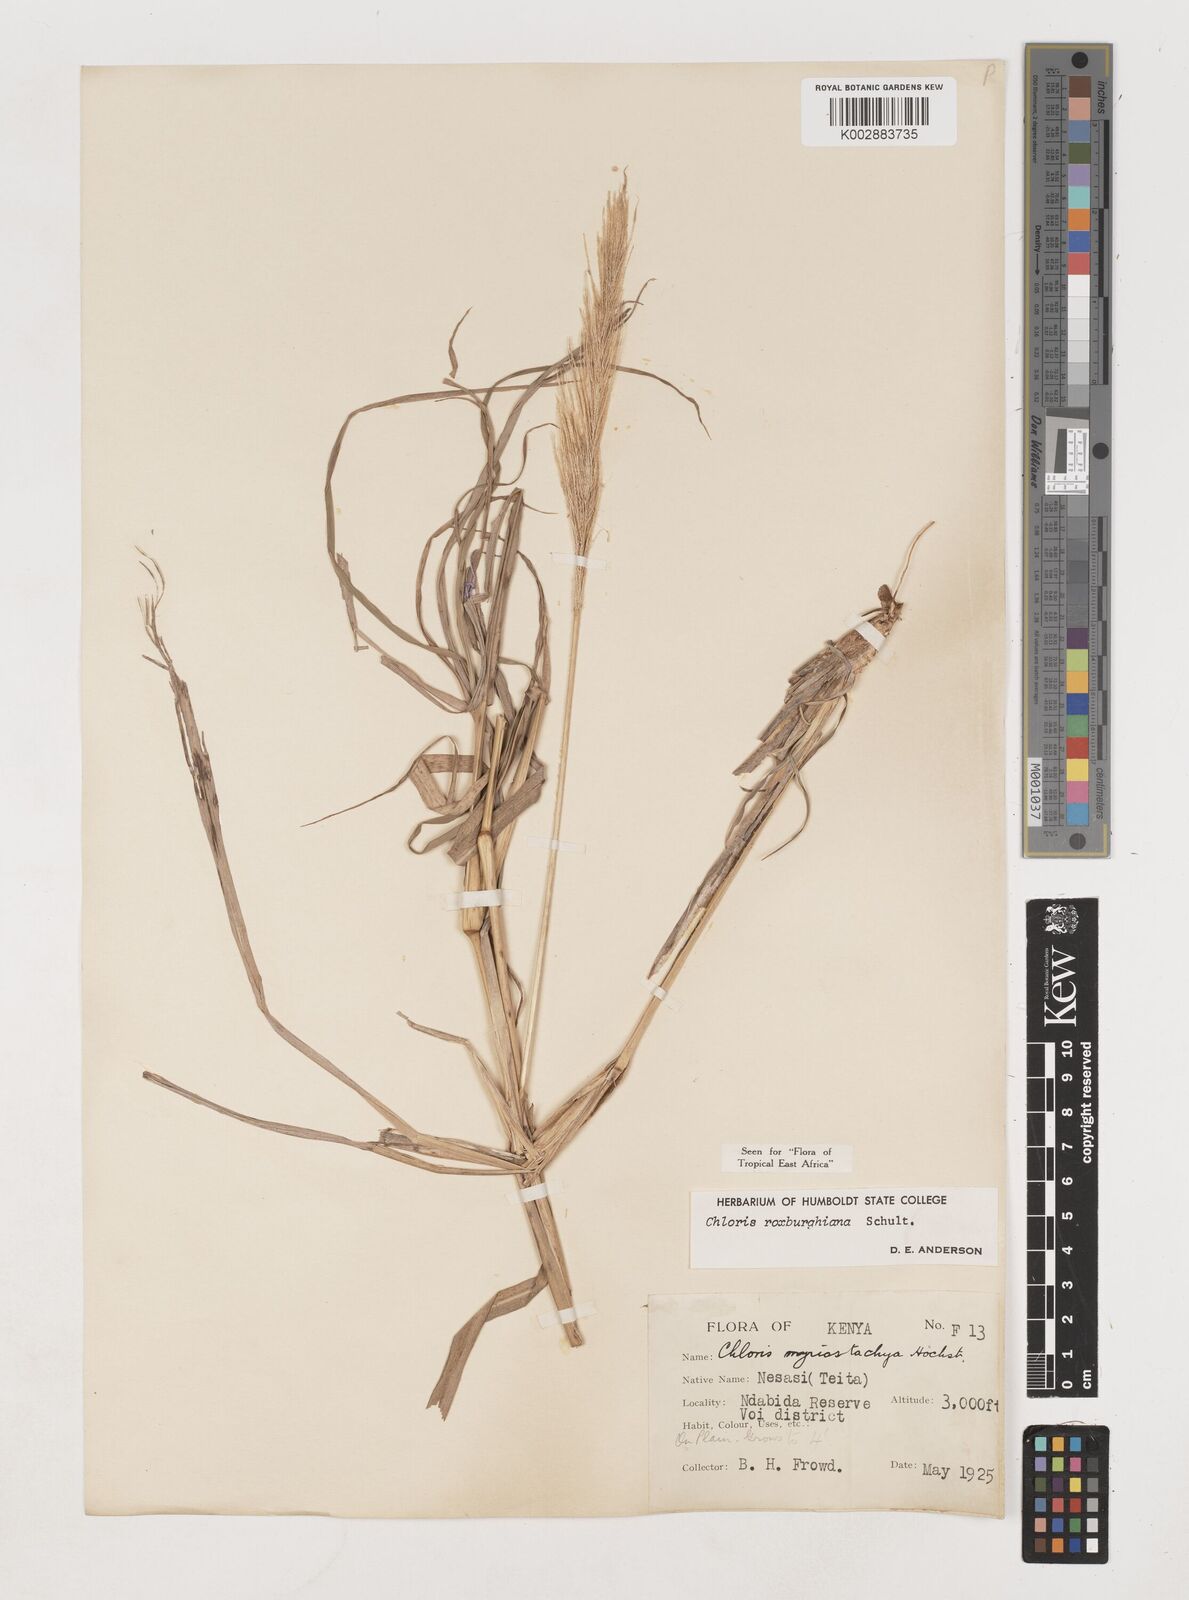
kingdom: Plantae
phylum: Tracheophyta
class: Liliopsida
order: Poales
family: Poaceae
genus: Tetrapogon
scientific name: Tetrapogon roxburghiana
